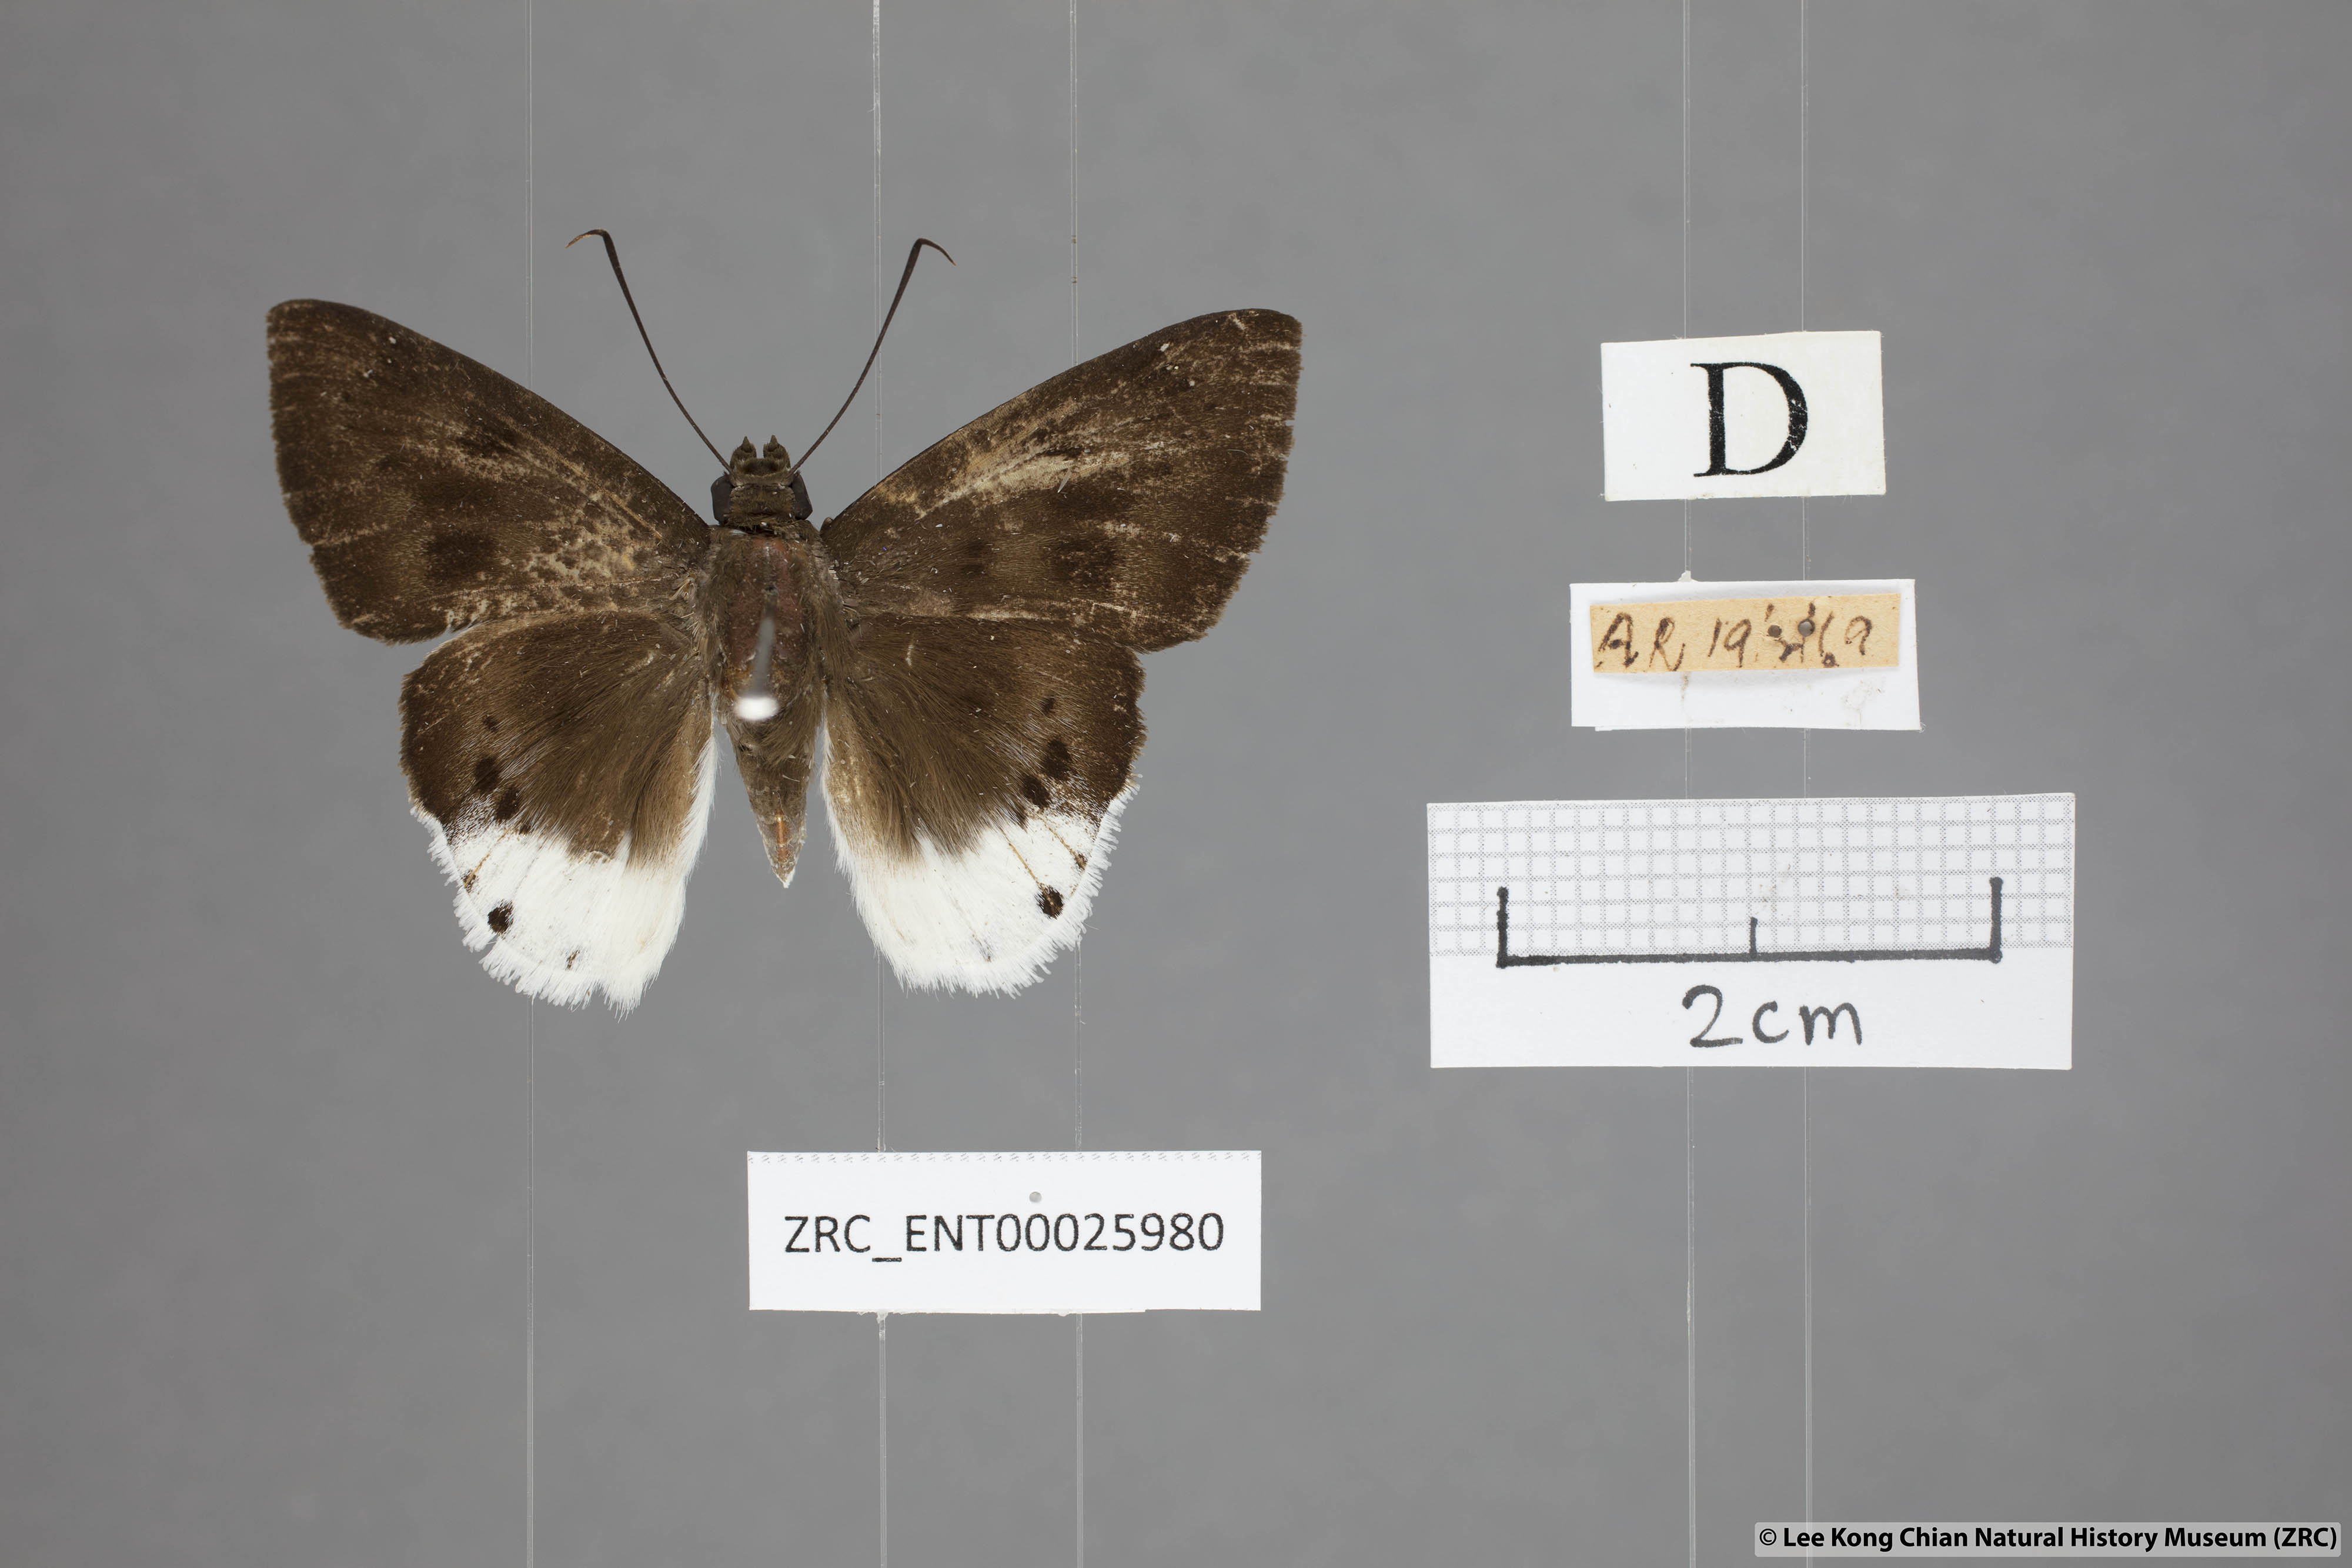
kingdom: Animalia
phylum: Arthropoda
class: Insecta
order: Lepidoptera
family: Hesperiidae
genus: Tagiades
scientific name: Tagiades gana
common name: Suffused snow flat
